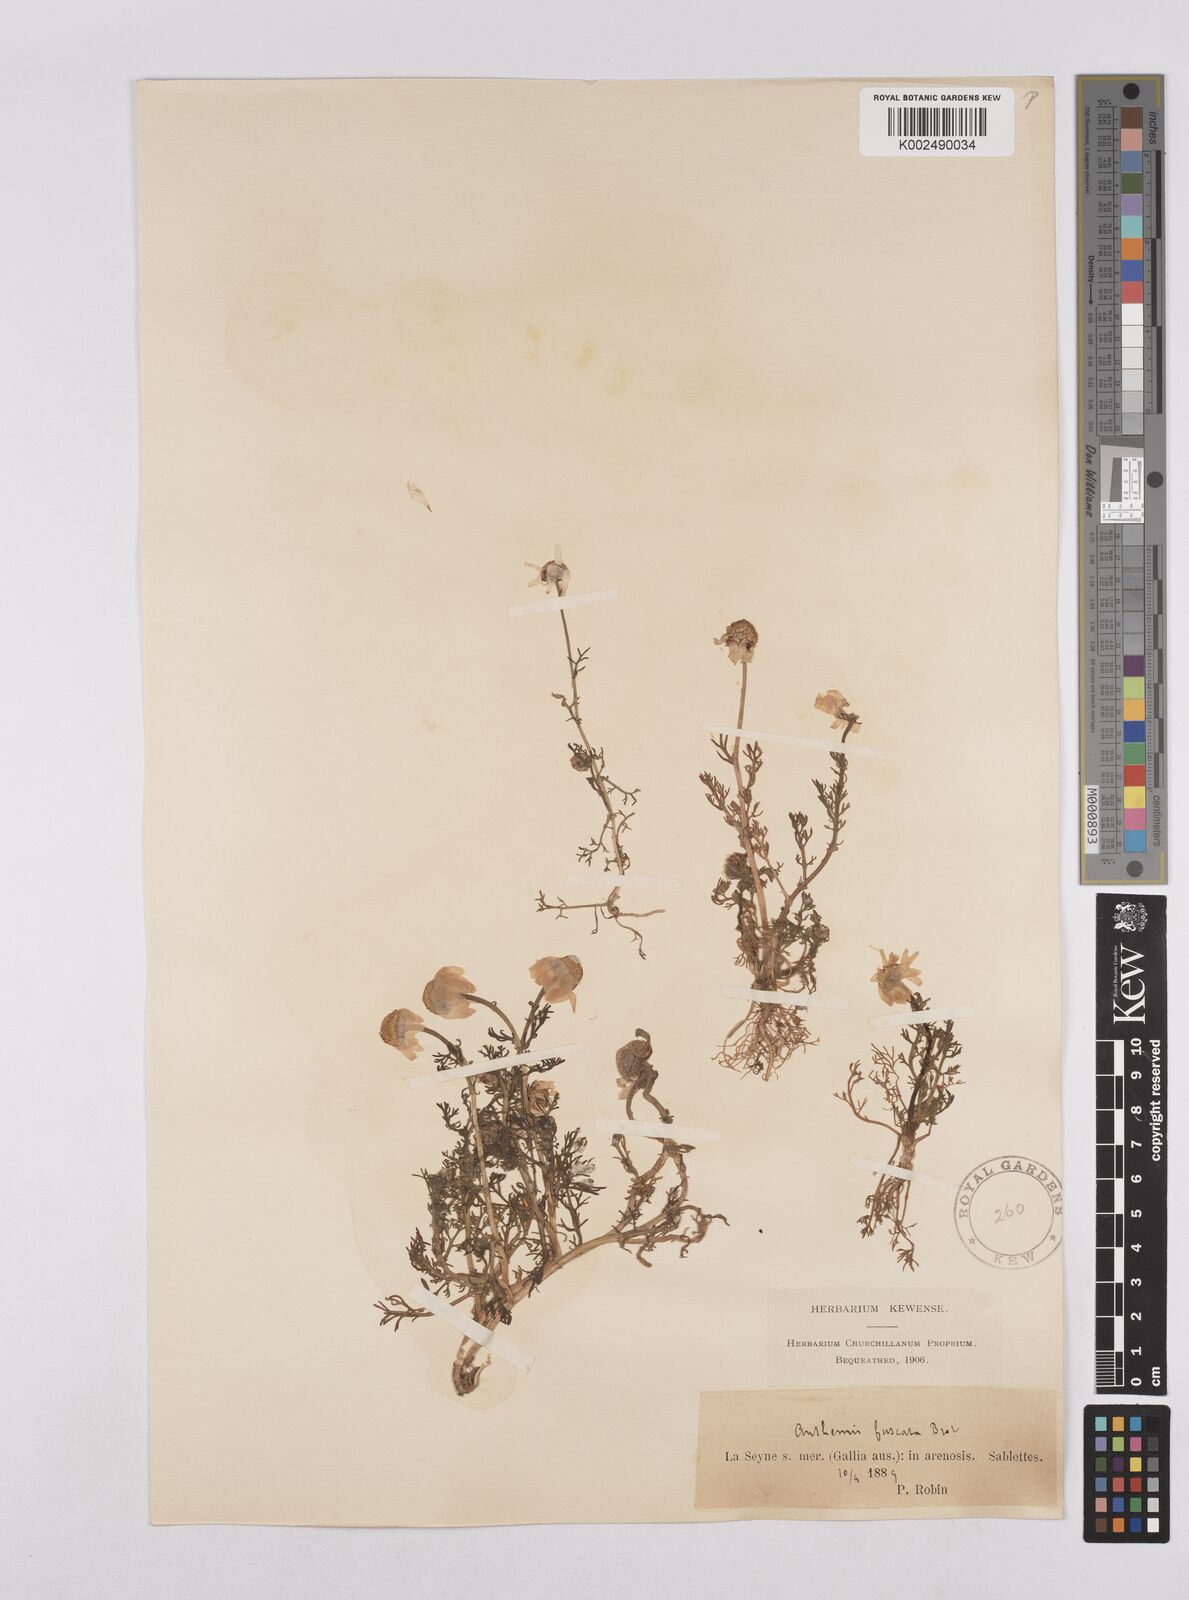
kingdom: Plantae
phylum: Tracheophyta
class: Magnoliopsida
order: Asterales
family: Asteraceae
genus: Chamaemelum
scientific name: Chamaemelum fuscatum
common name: Chamomile
